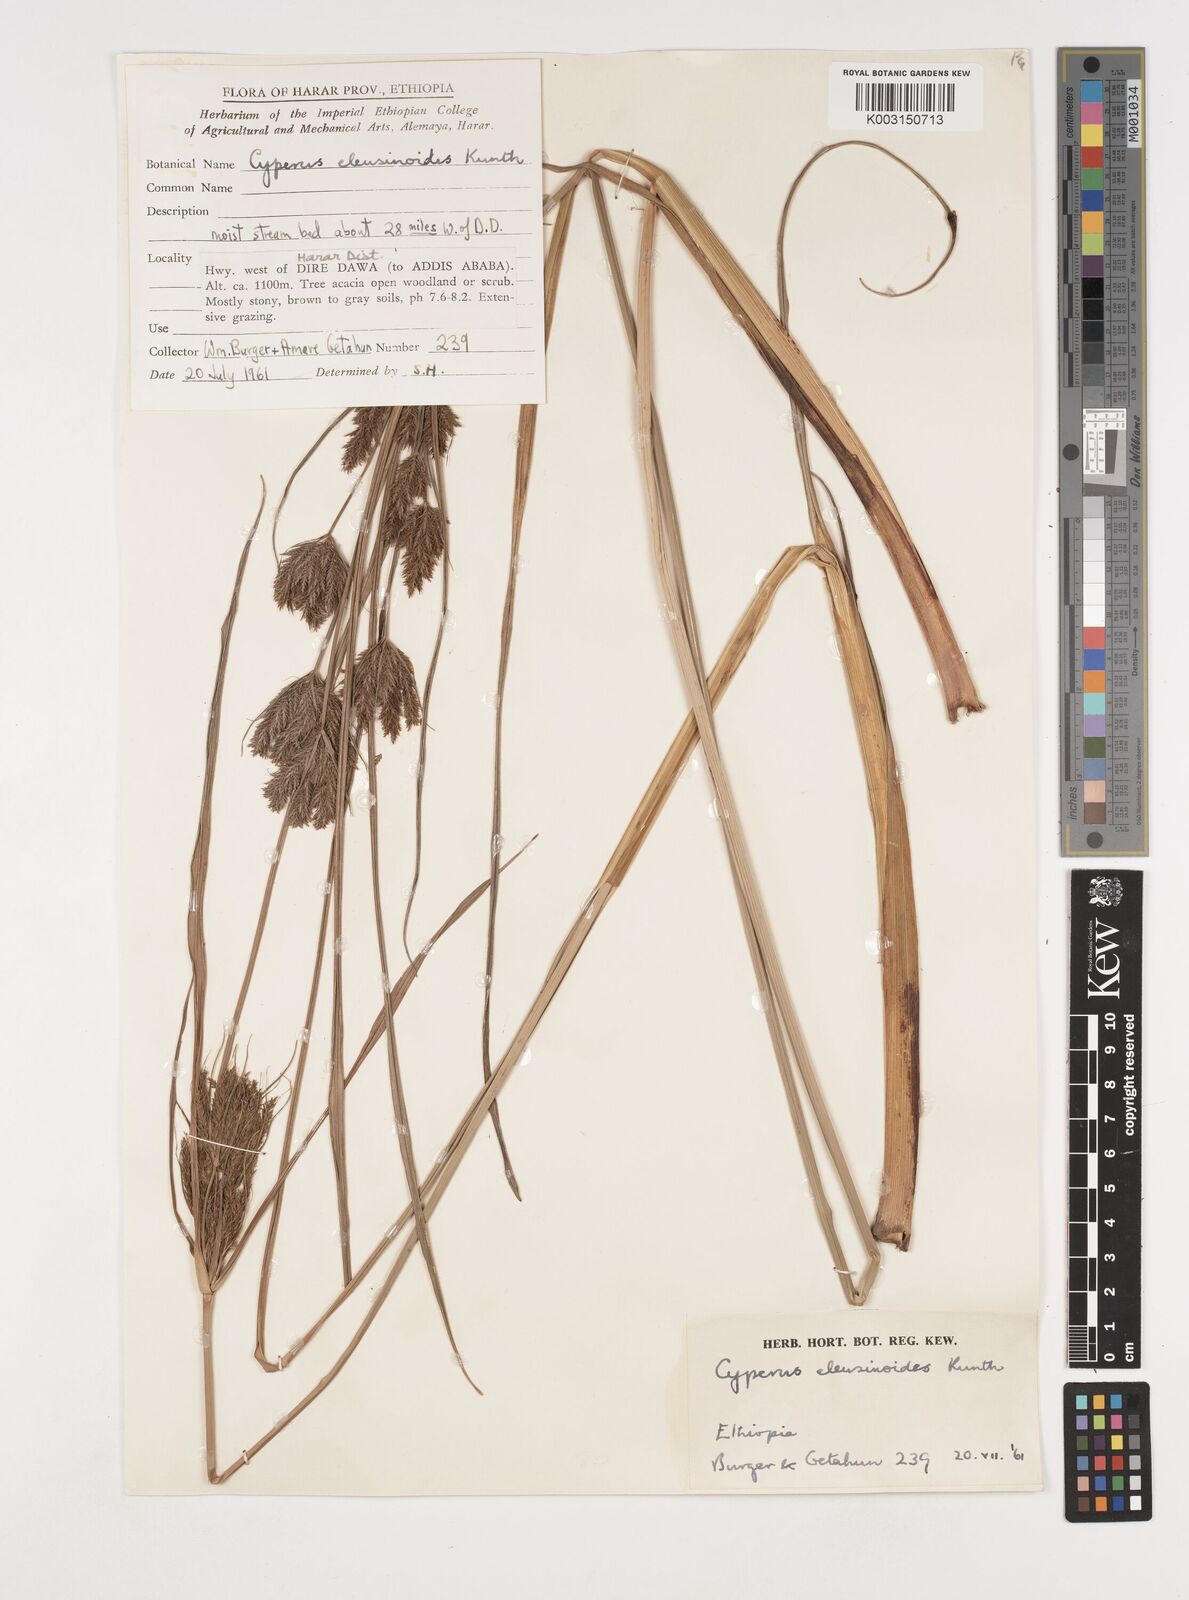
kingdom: Plantae
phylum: Tracheophyta
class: Liliopsida
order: Poales
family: Cyperaceae
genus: Cyperus
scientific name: Cyperus nutans
